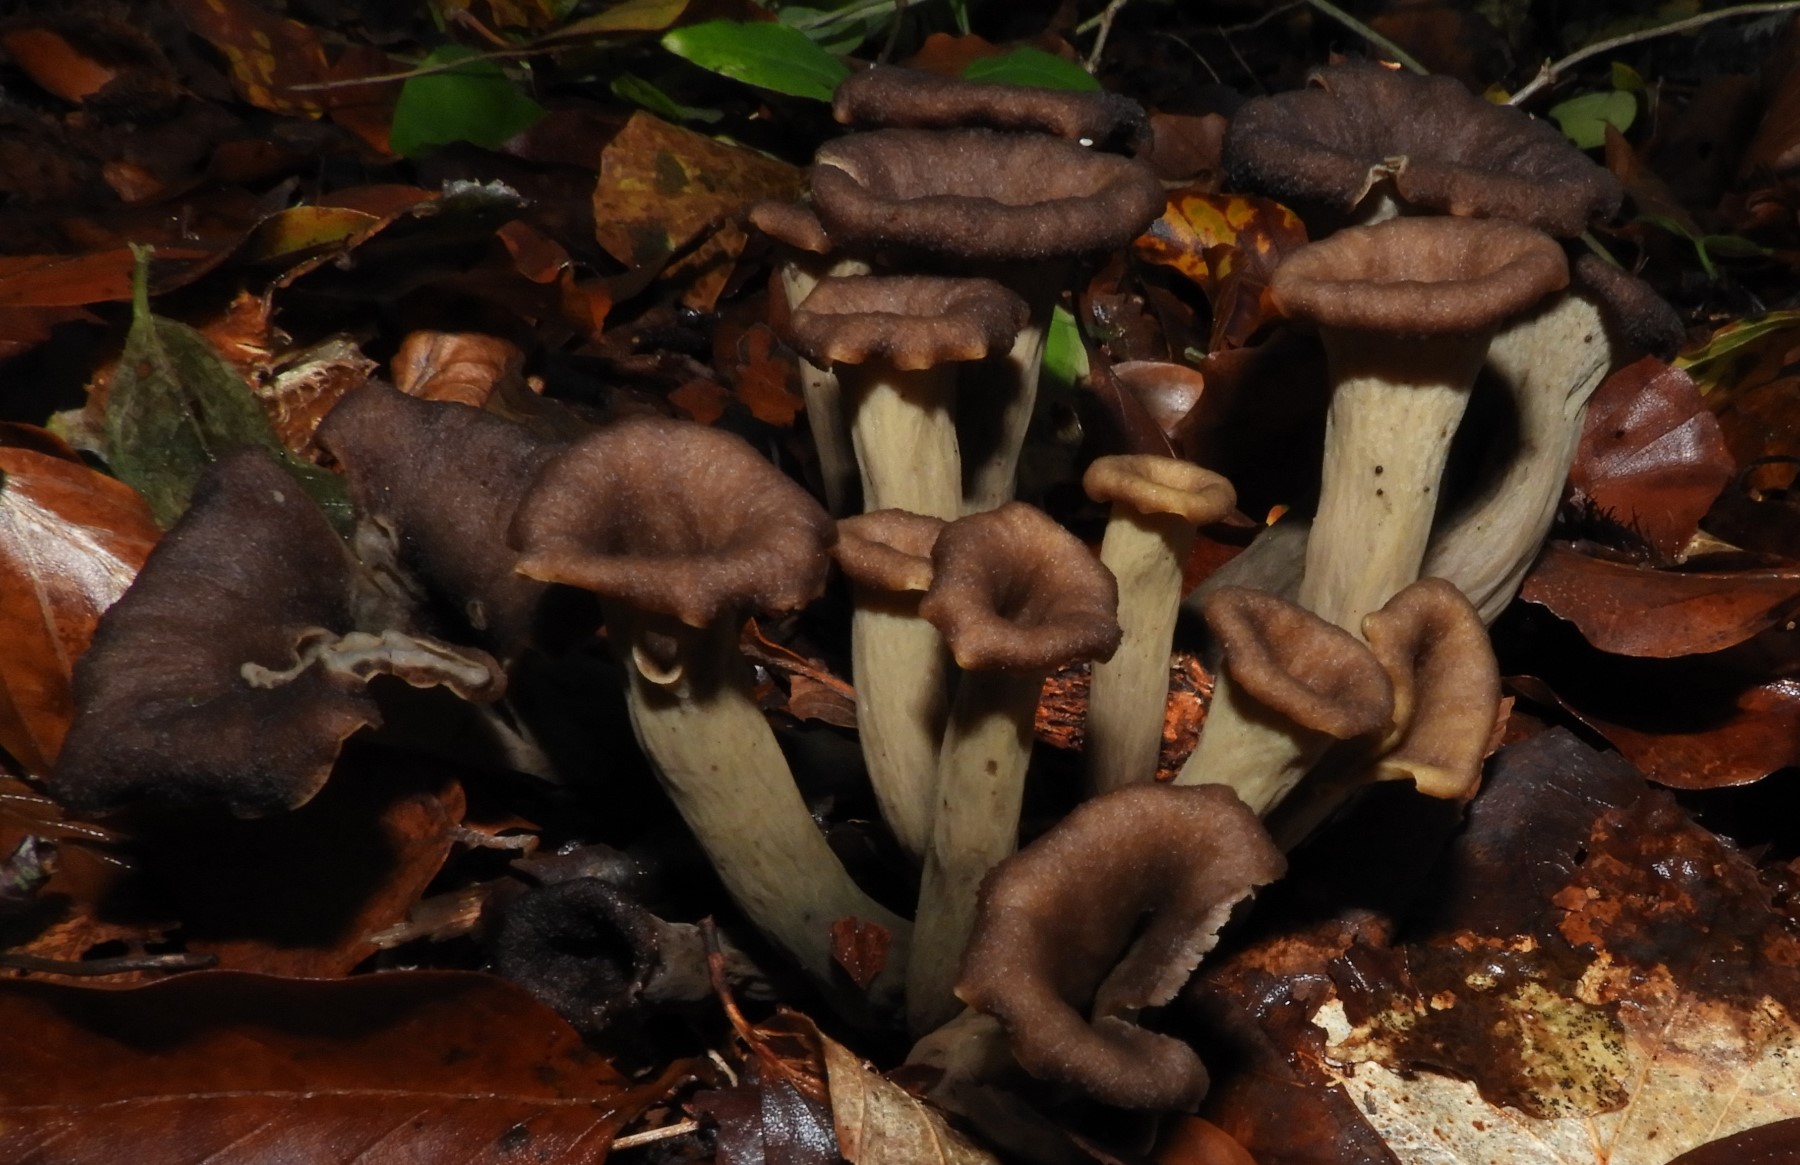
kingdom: Fungi
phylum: Basidiomycota
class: Agaricomycetes
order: Cantharellales
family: Hydnaceae
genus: Craterellus
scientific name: Craterellus cornucopioides
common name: trompetsvamp
